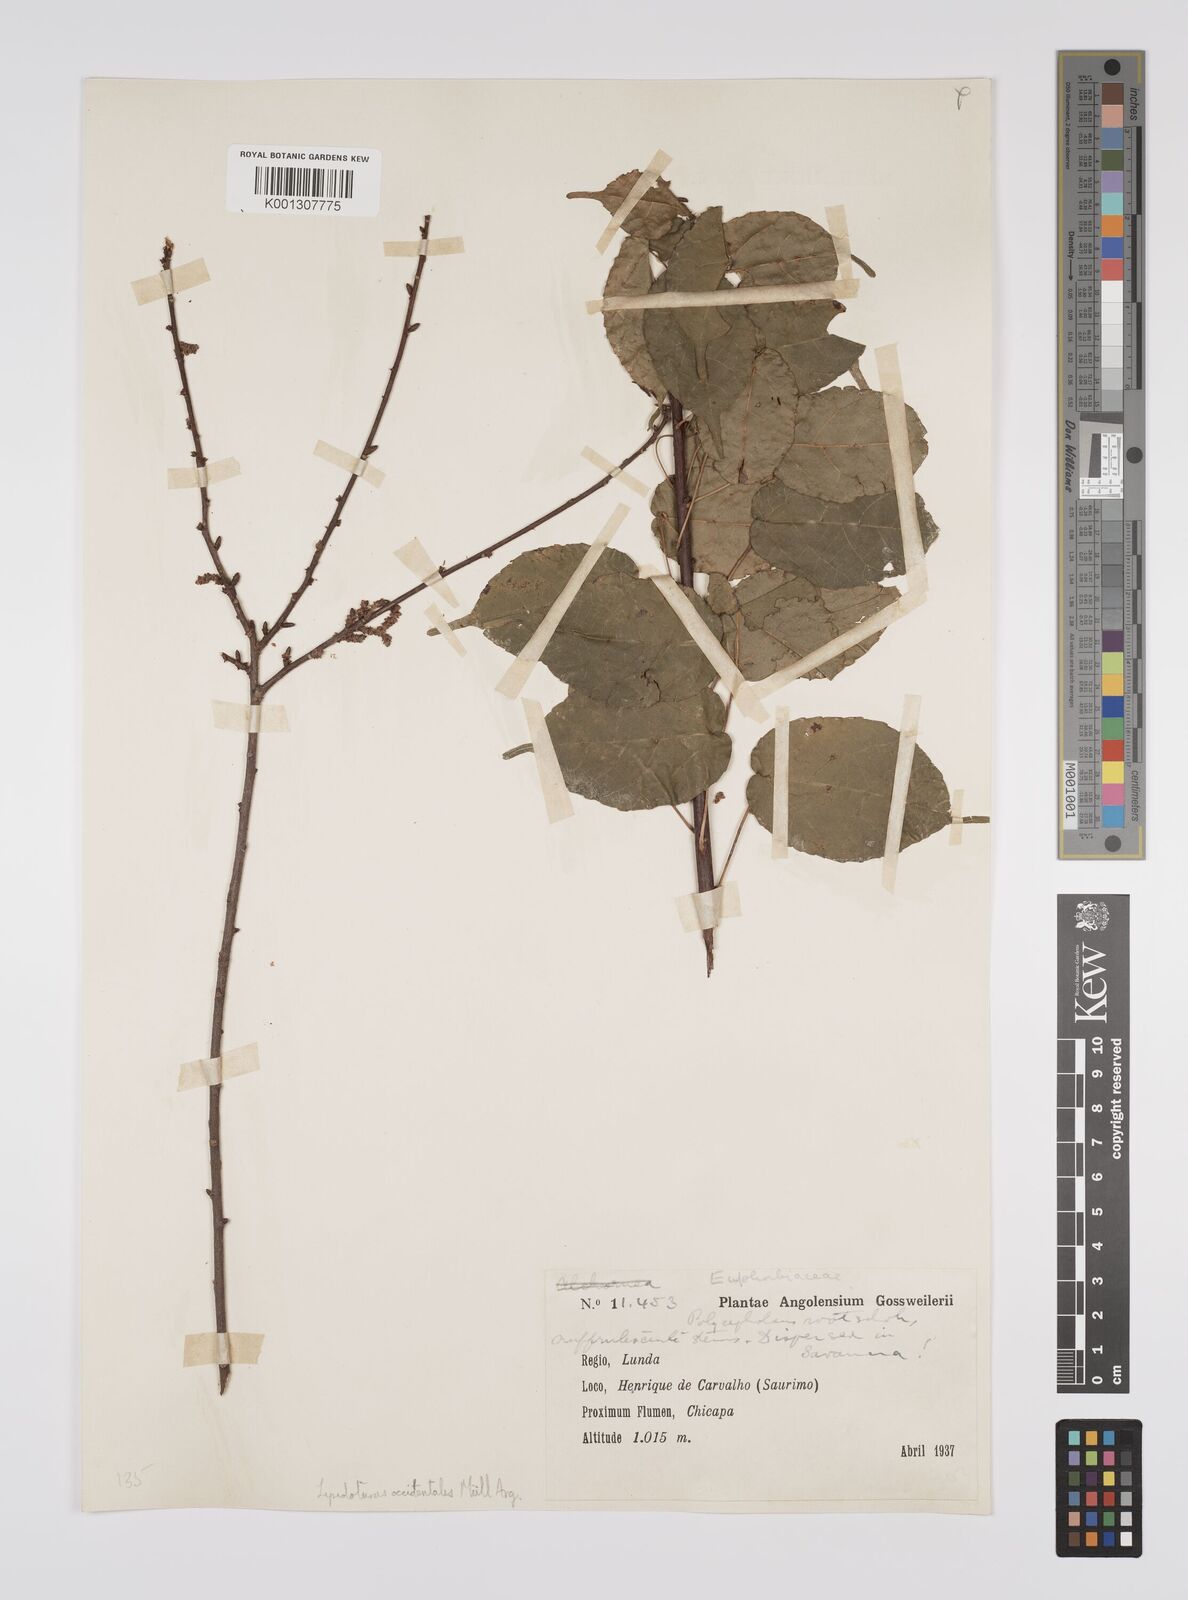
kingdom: Plantae
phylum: Tracheophyta
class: Magnoliopsida
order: Malpighiales
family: Euphorbiaceae
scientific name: Euphorbiaceae
